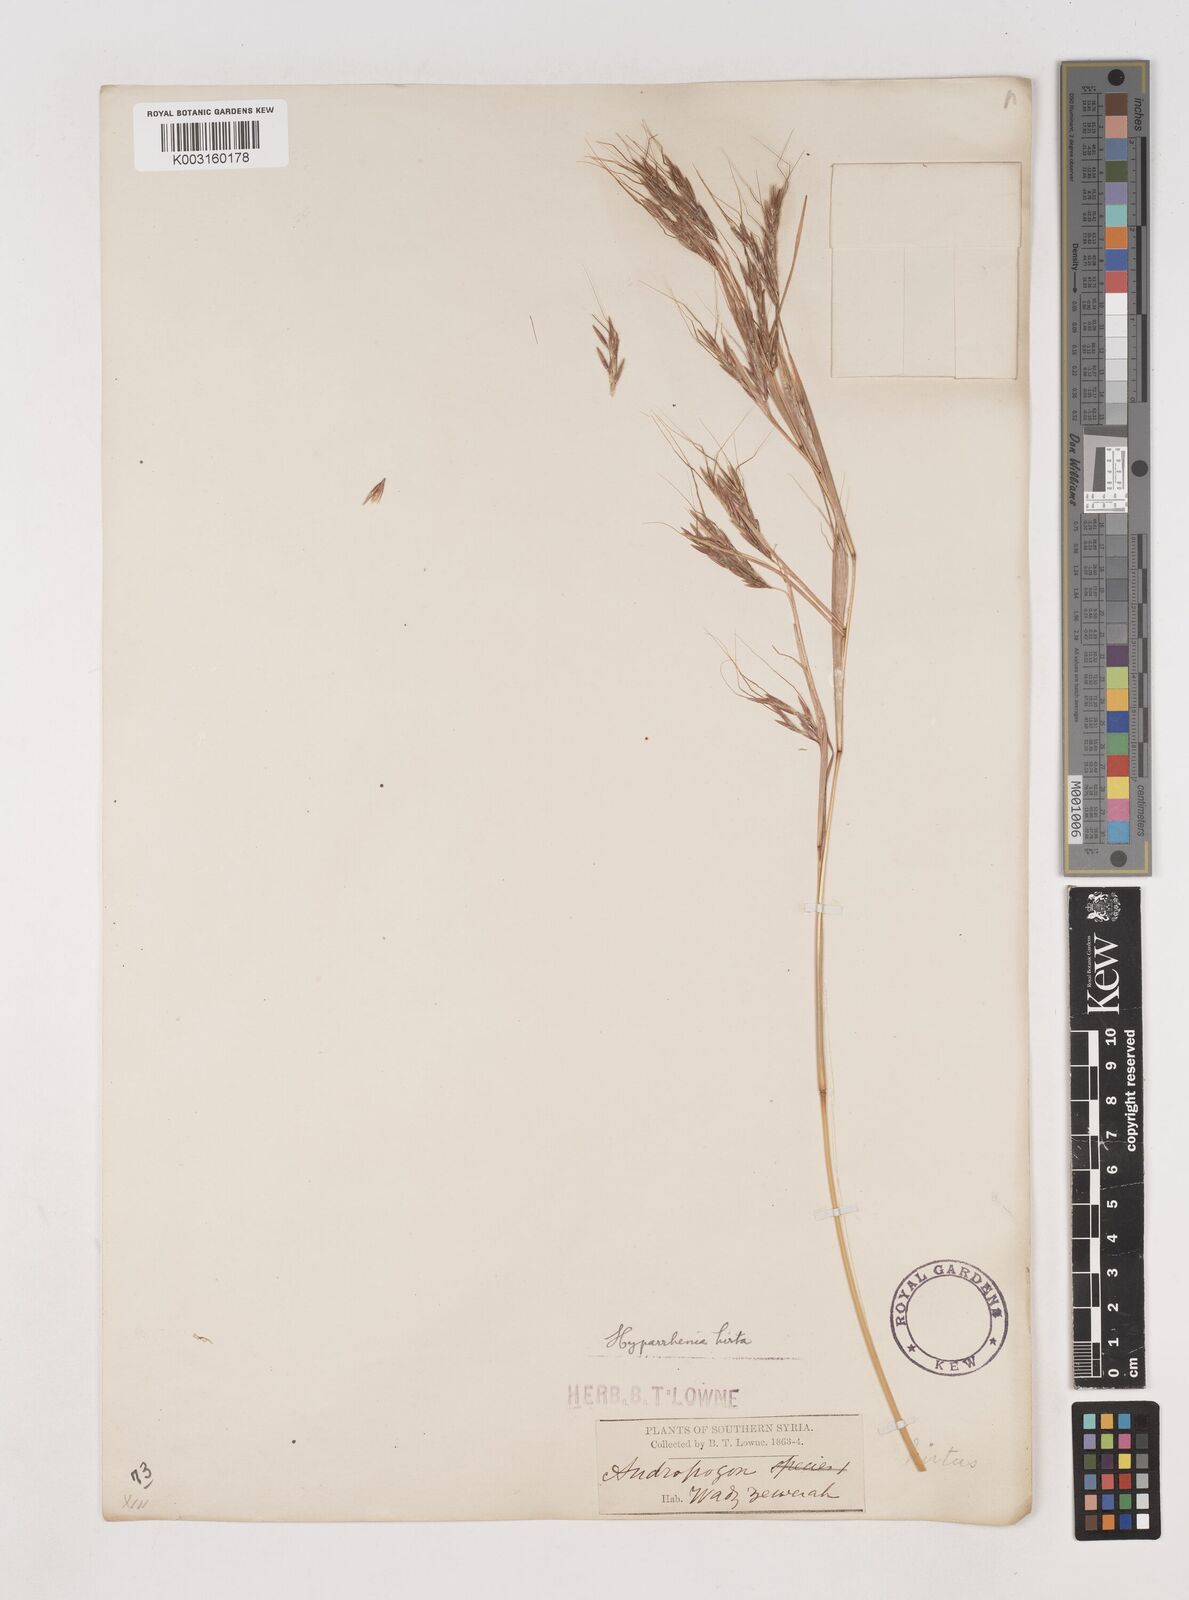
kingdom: Plantae
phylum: Tracheophyta
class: Liliopsida
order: Poales
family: Poaceae
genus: Hyparrhenia
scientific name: Hyparrhenia hirta
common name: Thatching grass
